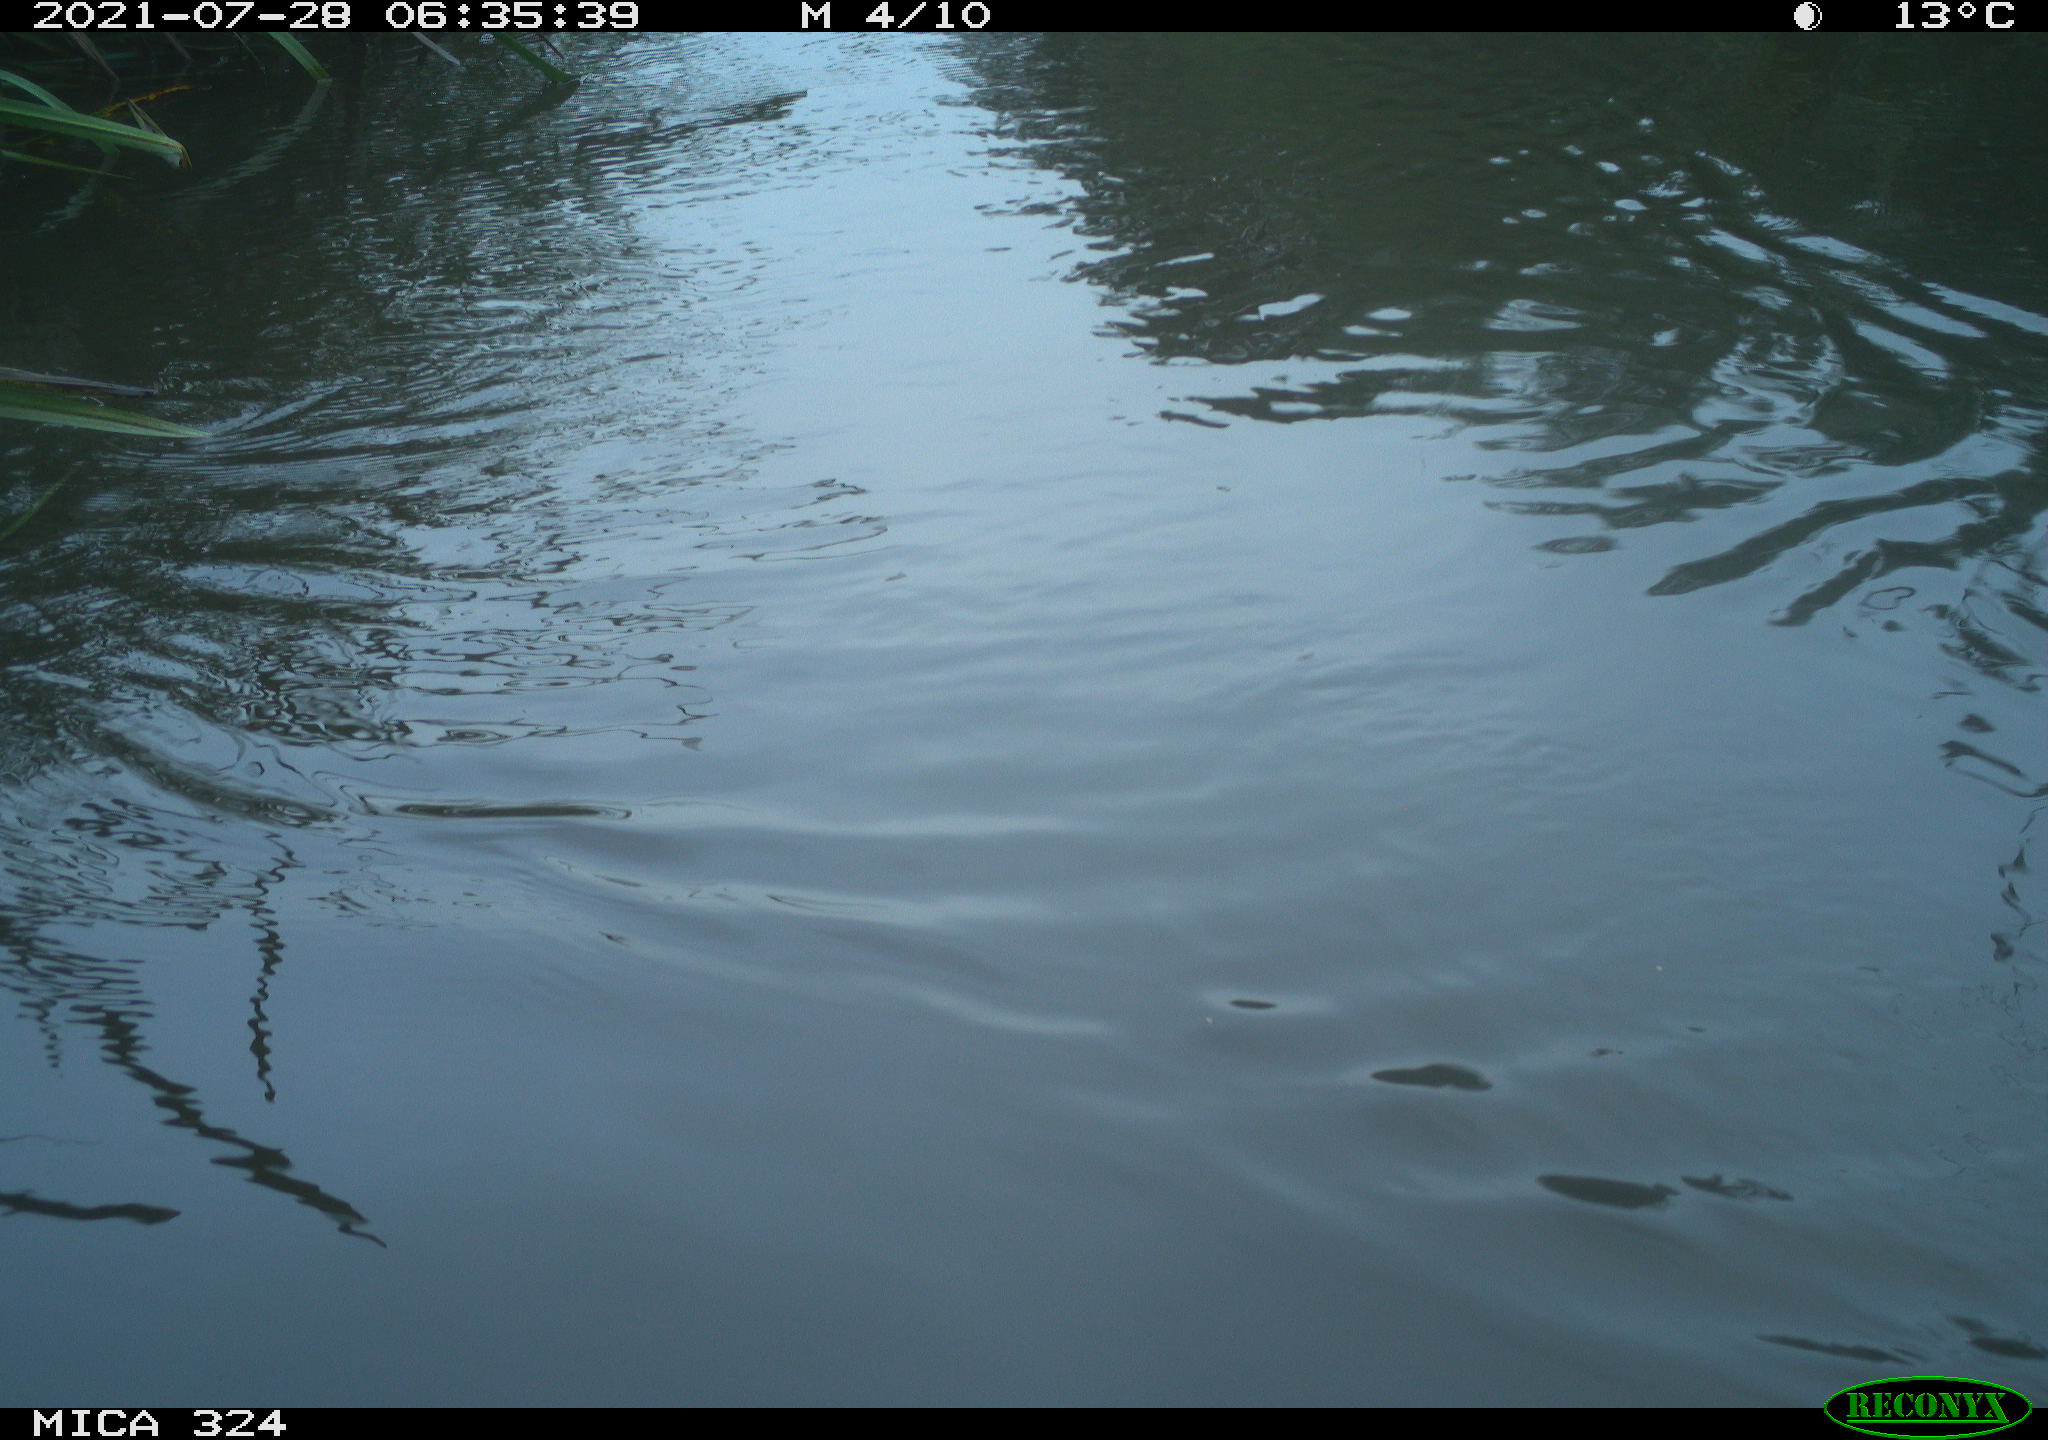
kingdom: Animalia
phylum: Chordata
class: Aves
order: Gruiformes
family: Rallidae
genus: Gallinula
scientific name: Gallinula chloropus
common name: Common moorhen
